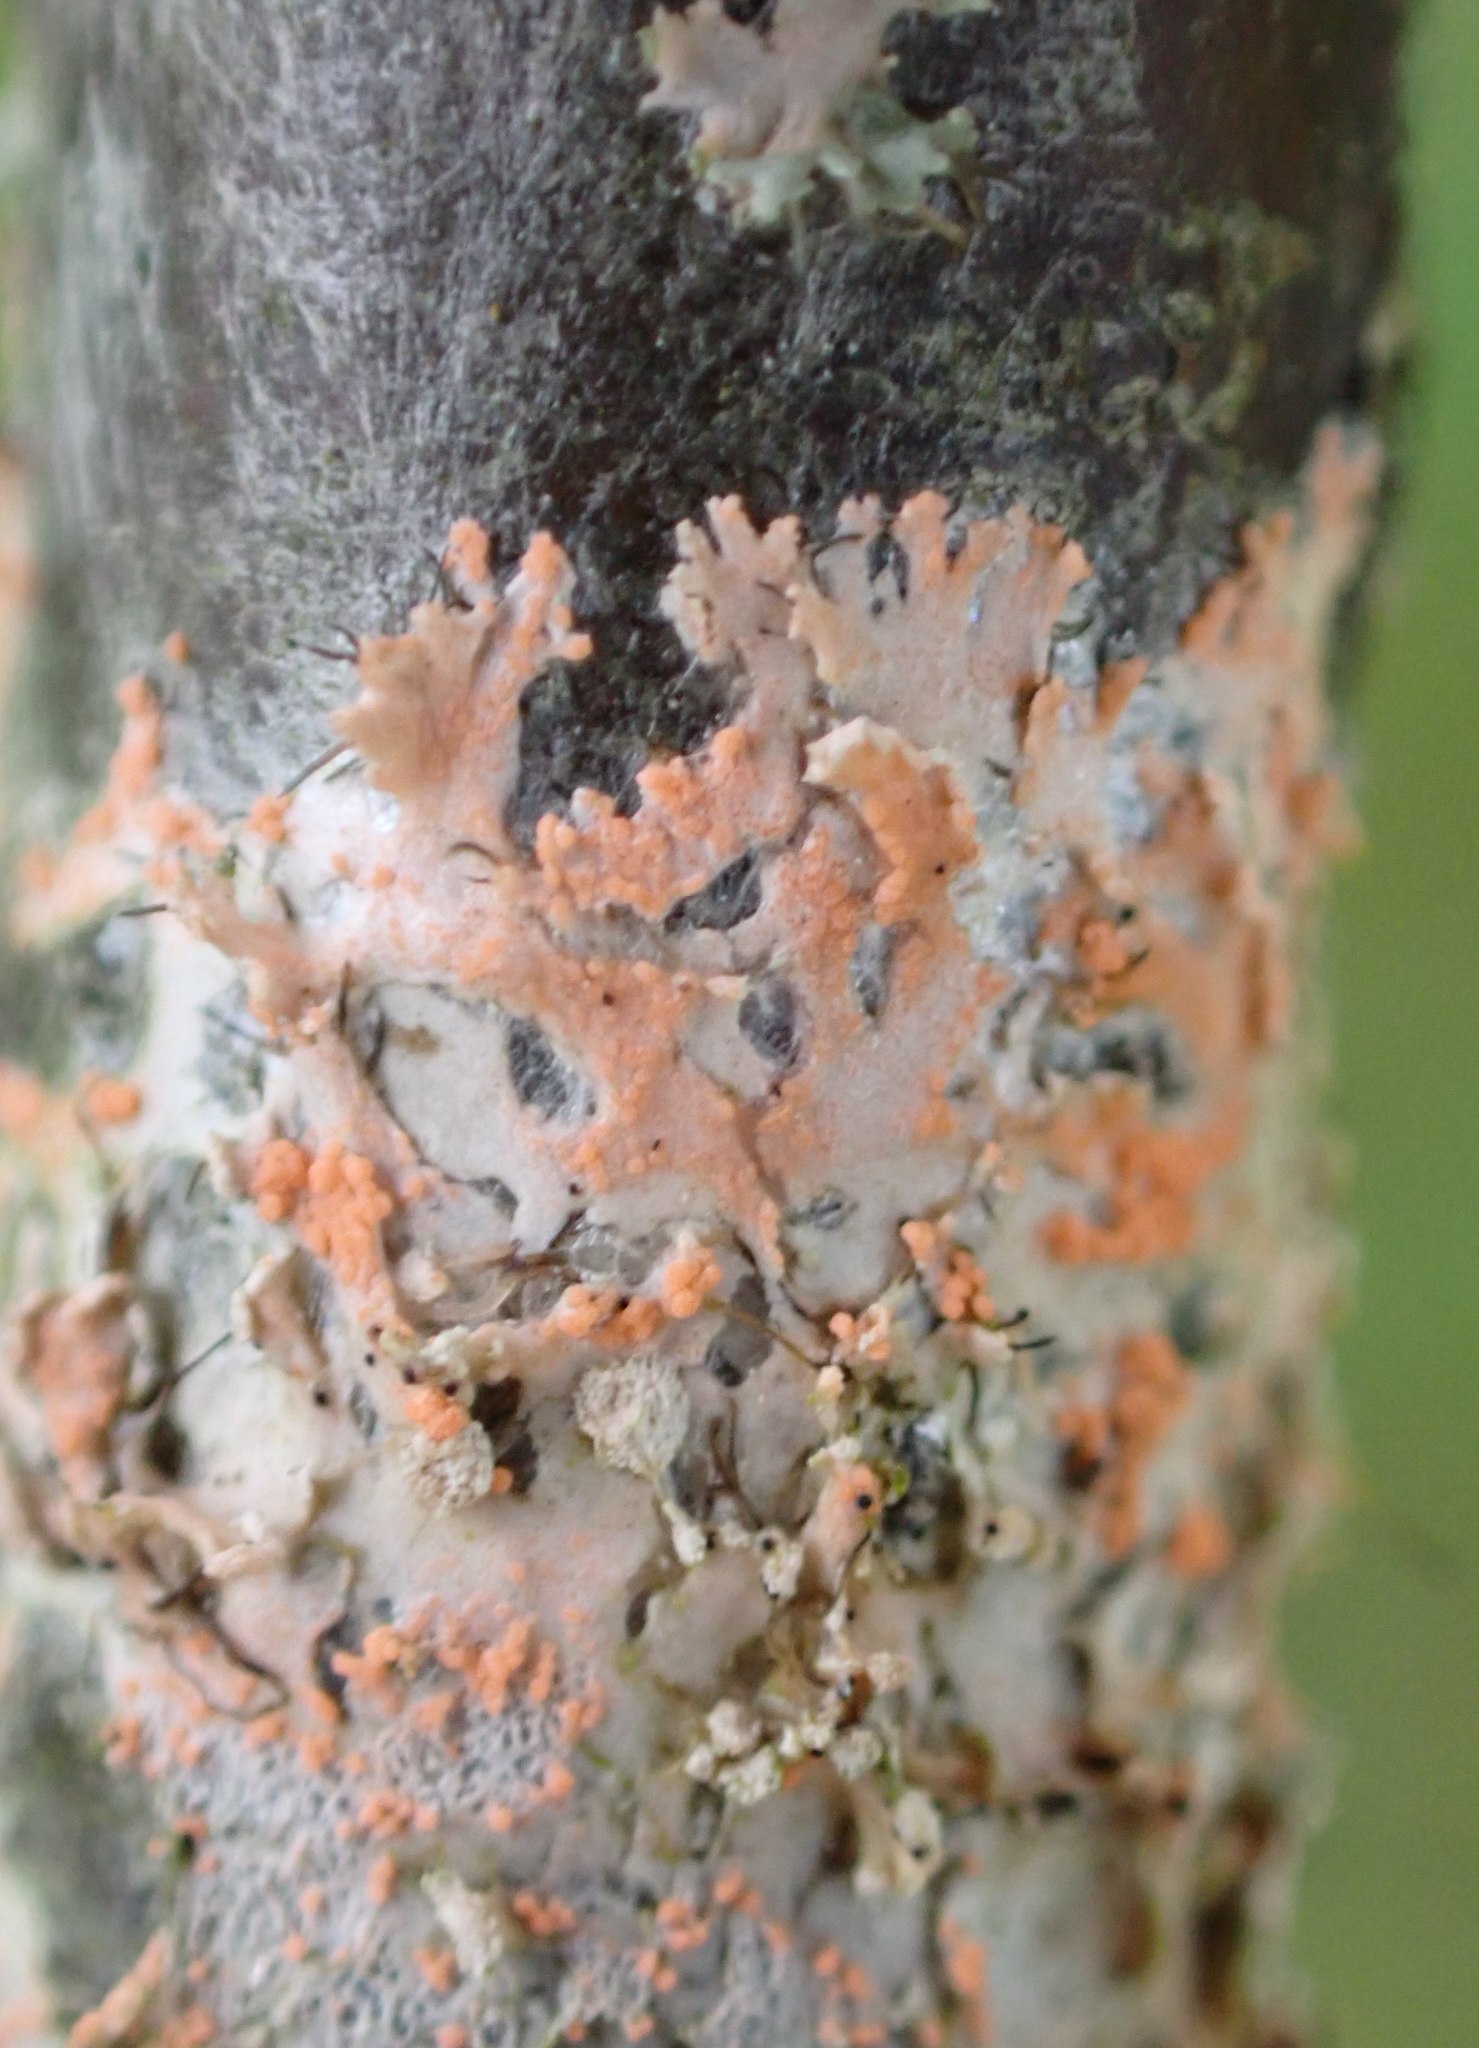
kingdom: Fungi
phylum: Basidiomycota
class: Agaricomycetes
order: Corticiales
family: Corticiaceae
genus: Erythricium
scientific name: Erythricium aurantiacum
